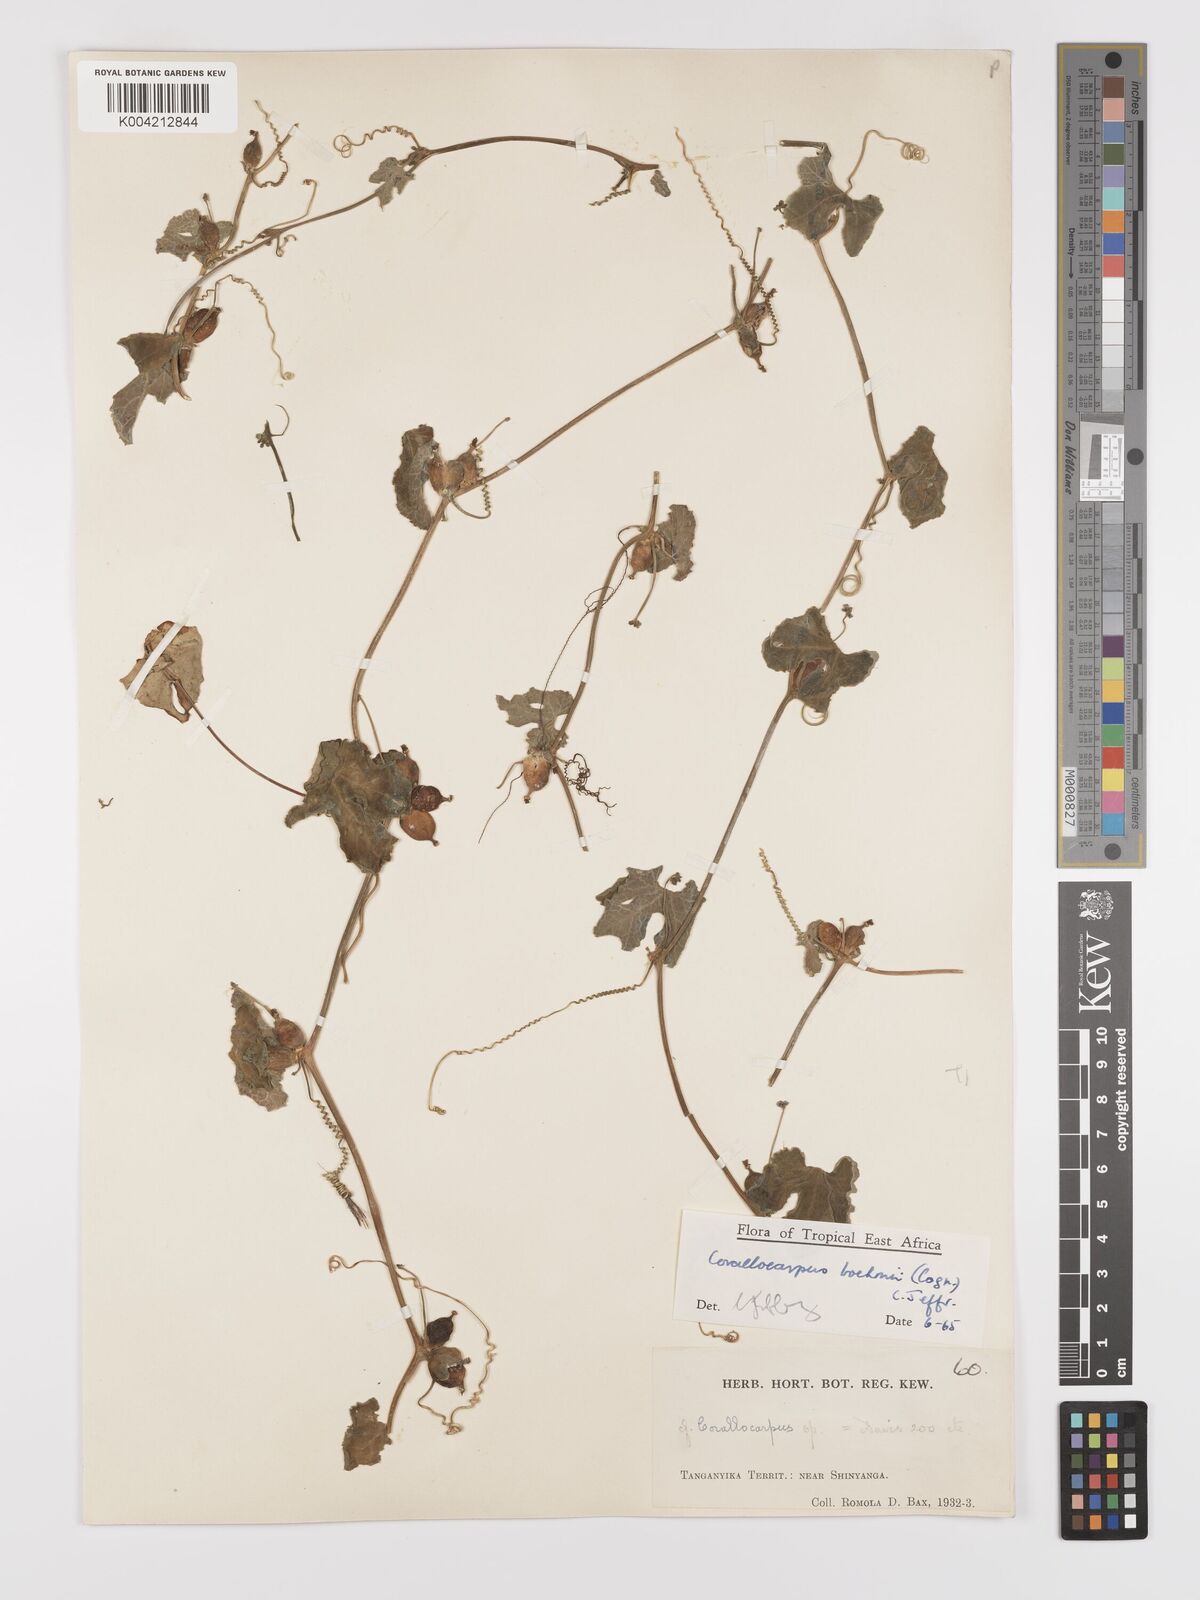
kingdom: Plantae
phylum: Tracheophyta
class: Magnoliopsida
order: Cucurbitales
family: Cucurbitaceae
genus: Corallocarpus
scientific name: Corallocarpus boehmii
